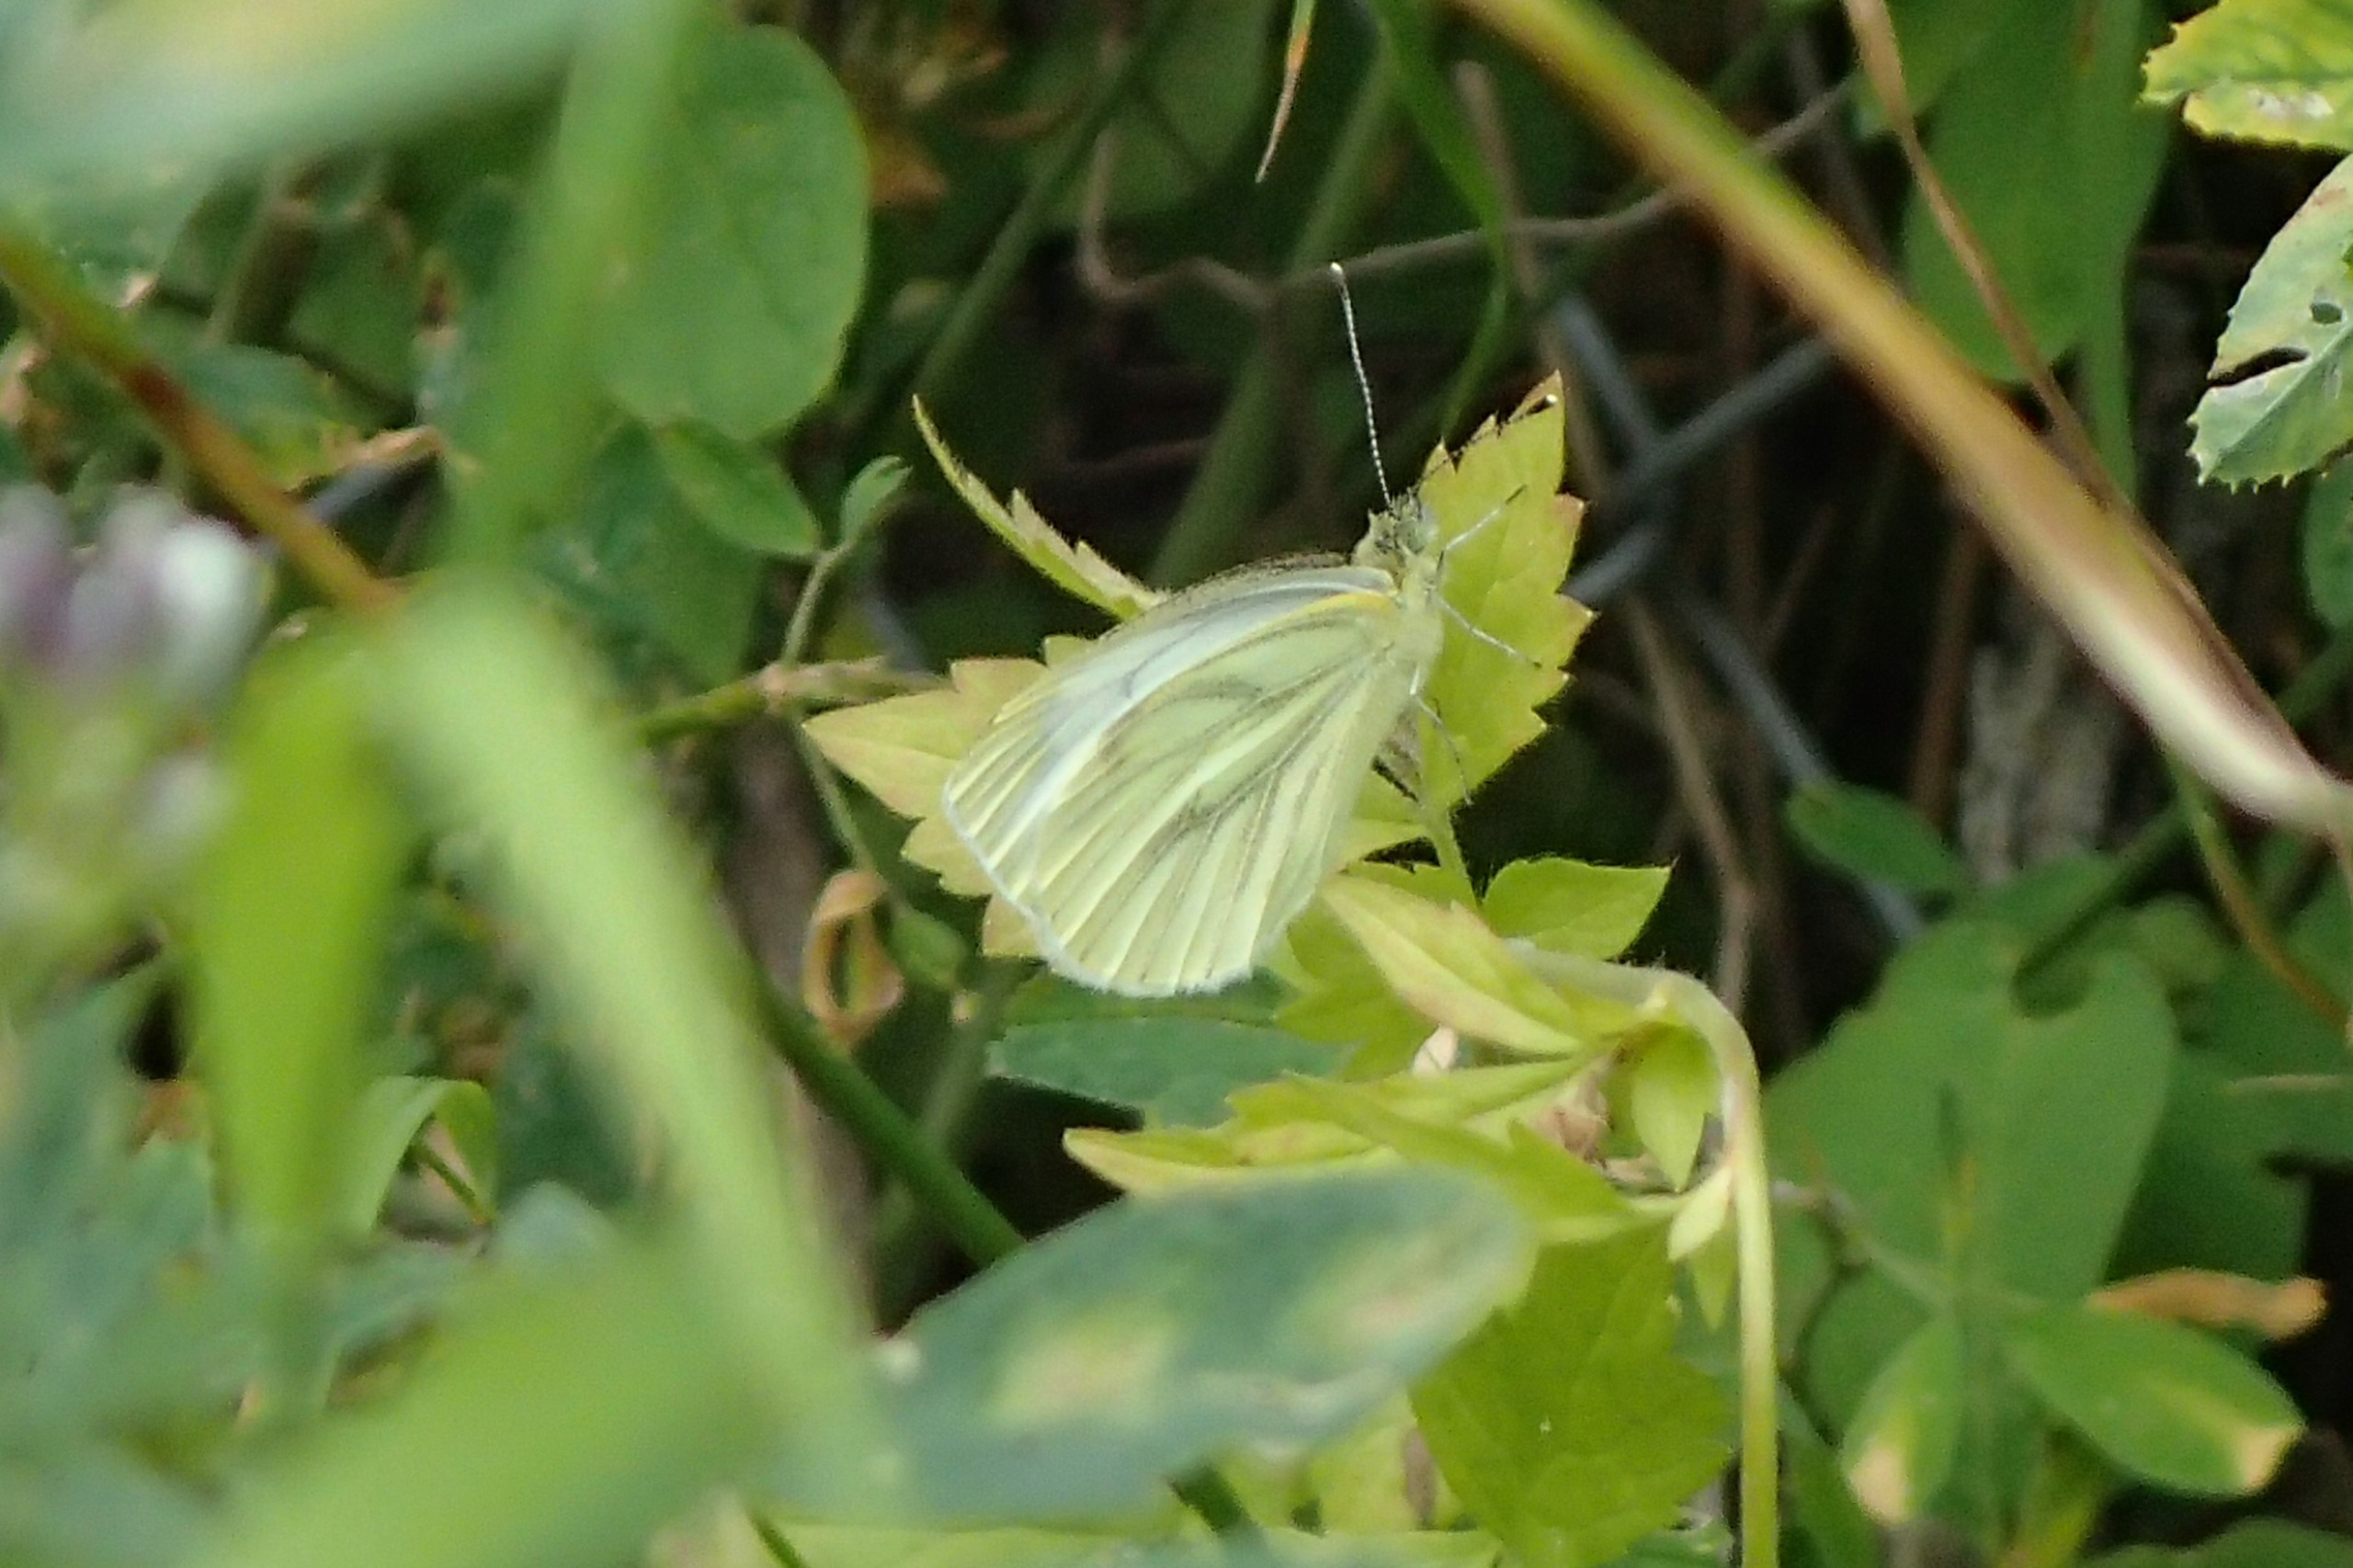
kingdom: Animalia
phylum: Arthropoda
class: Insecta
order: Lepidoptera
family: Pieridae
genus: Pieris
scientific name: Pieris napi
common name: Grønåret kålsommerfugl
